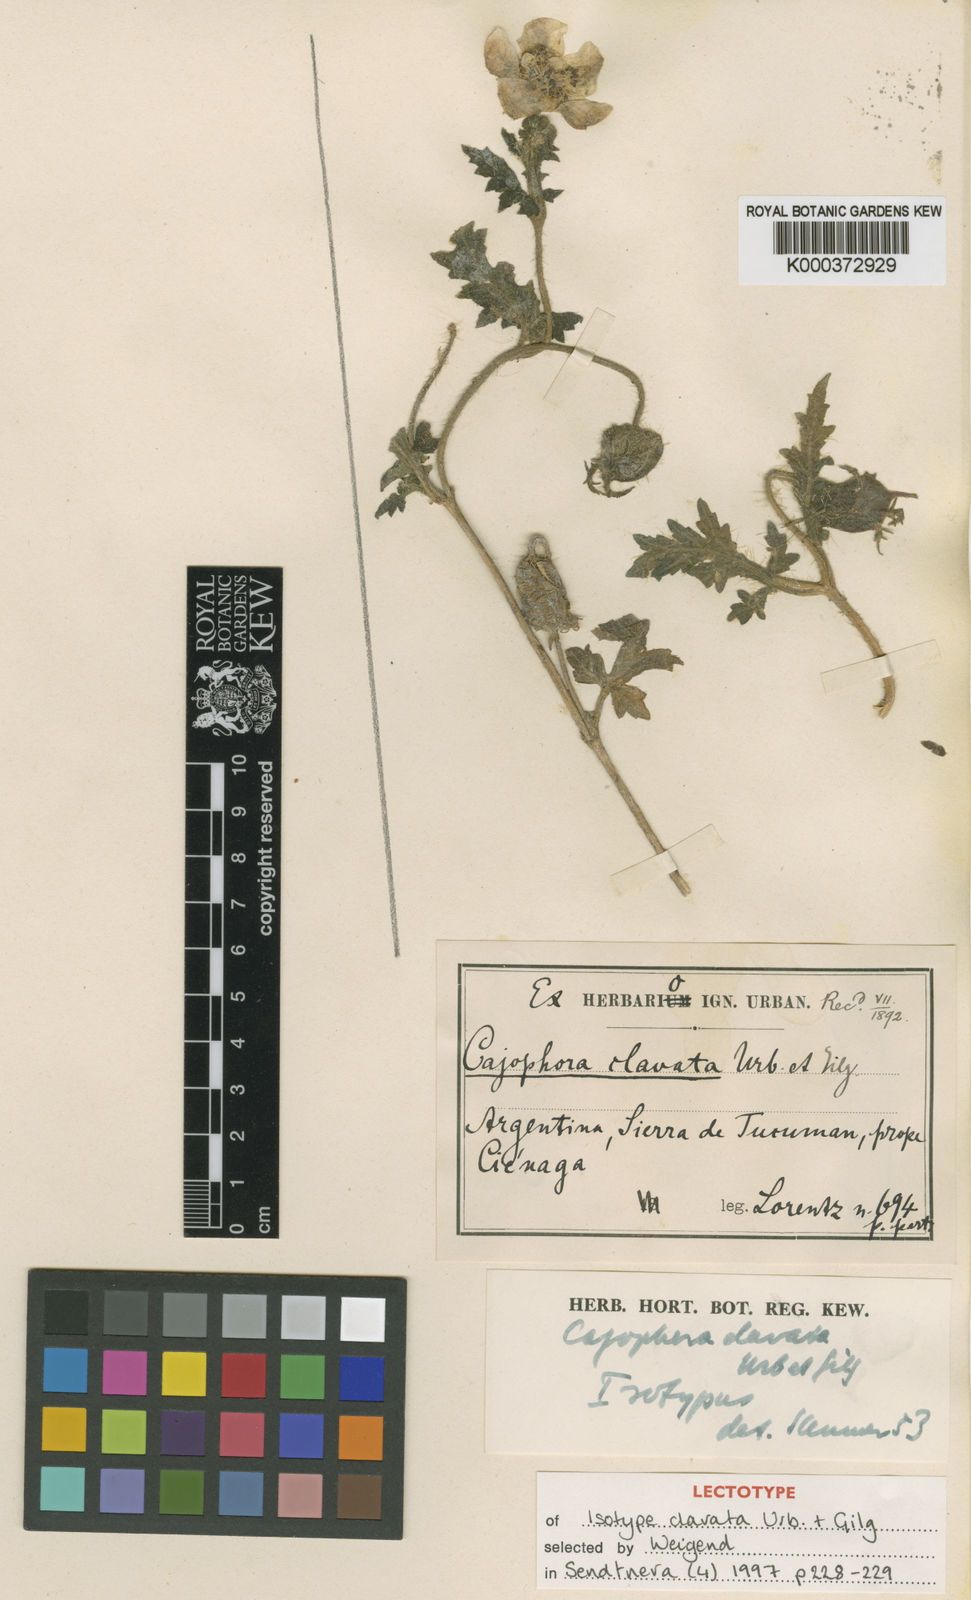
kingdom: Plantae
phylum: Tracheophyta
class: Magnoliopsida
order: Cornales
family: Loasaceae
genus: Caiophora
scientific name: Caiophora clavata
